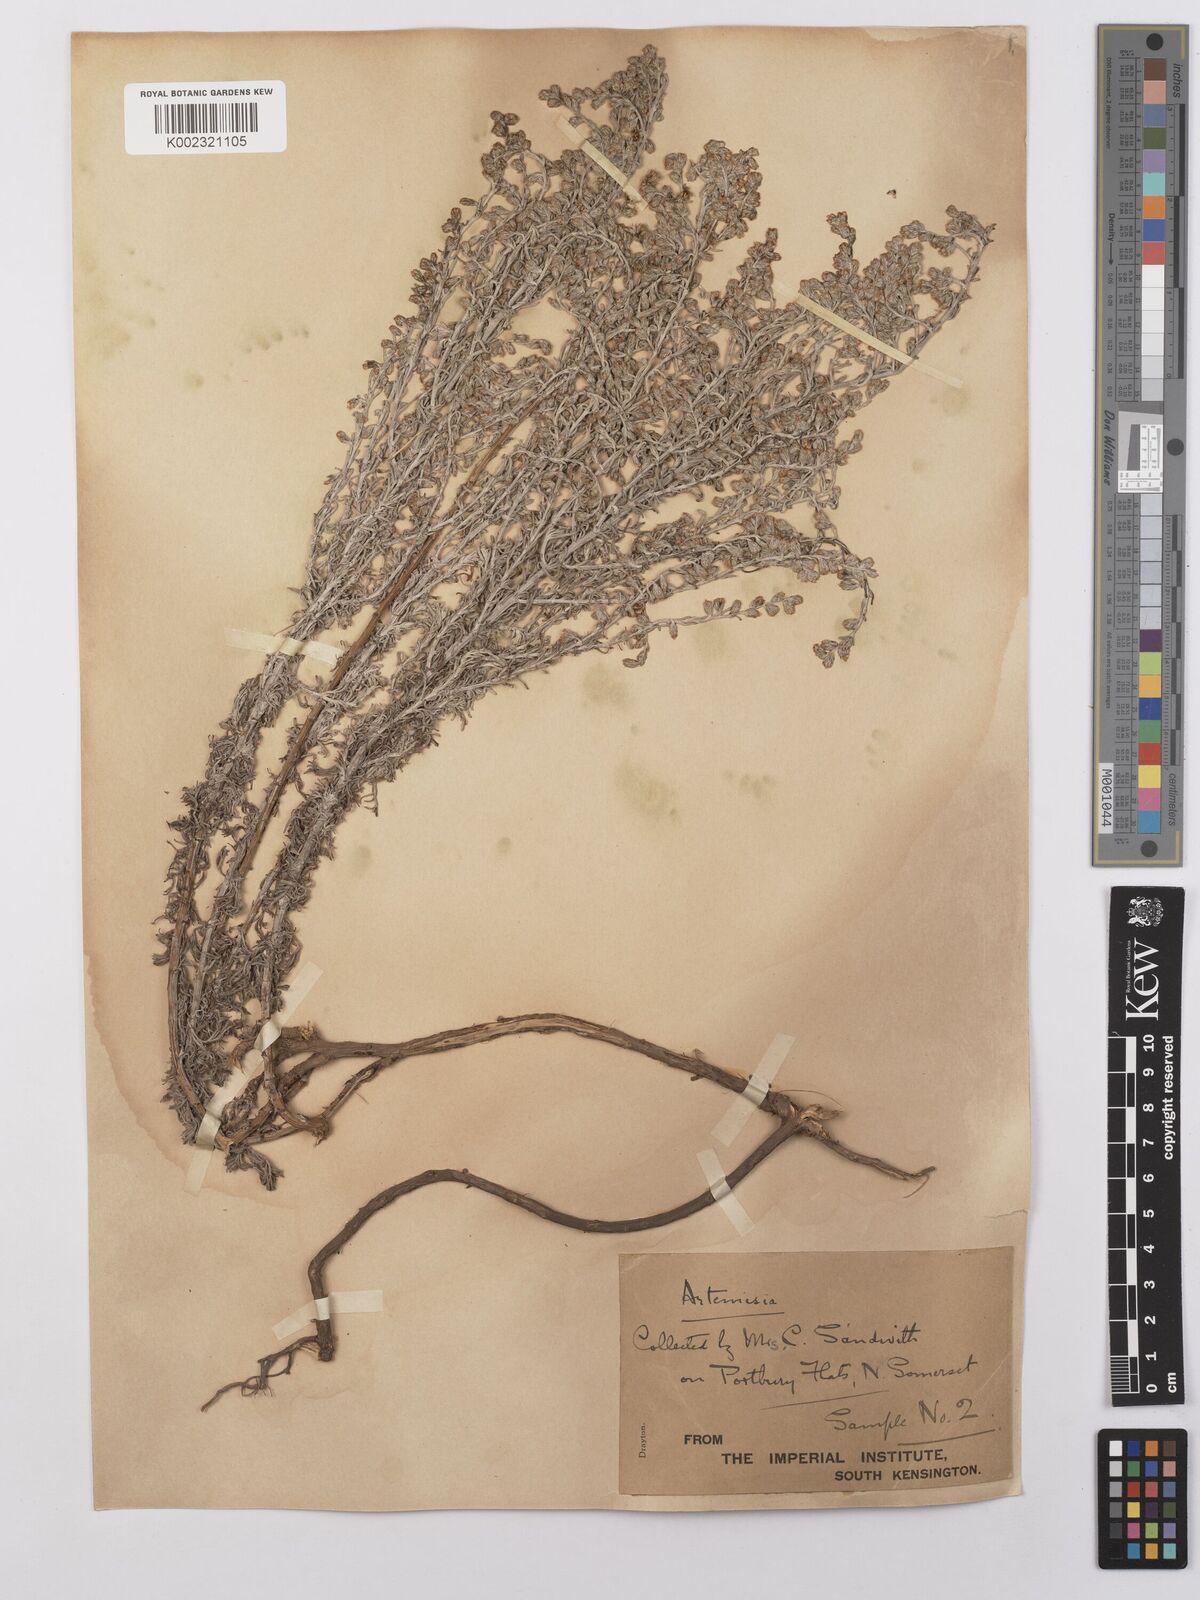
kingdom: Plantae
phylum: Tracheophyta
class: Magnoliopsida
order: Asterales
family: Asteraceae
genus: Artemisia
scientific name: Artemisia maritima
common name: Wormseed
